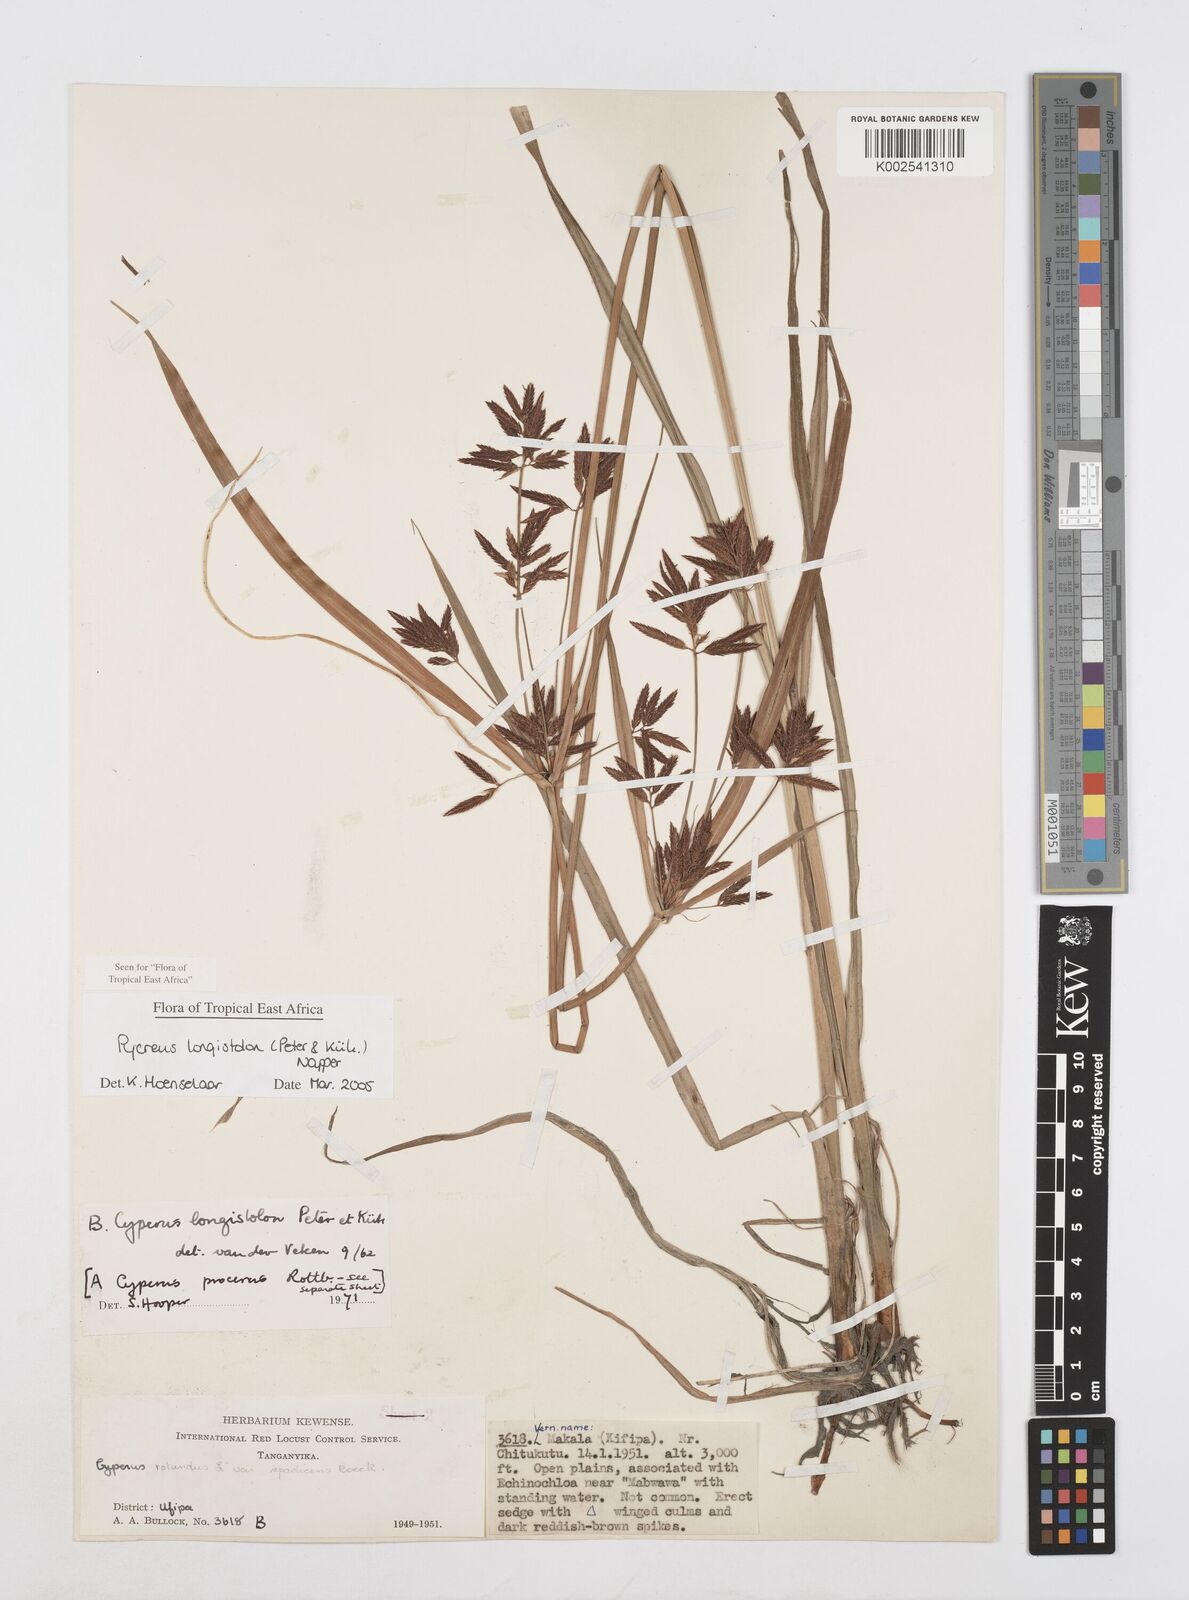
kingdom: Plantae
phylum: Tracheophyta
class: Liliopsida
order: Poales
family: Cyperaceae
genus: Cyperus
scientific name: Cyperus chrysanthus
